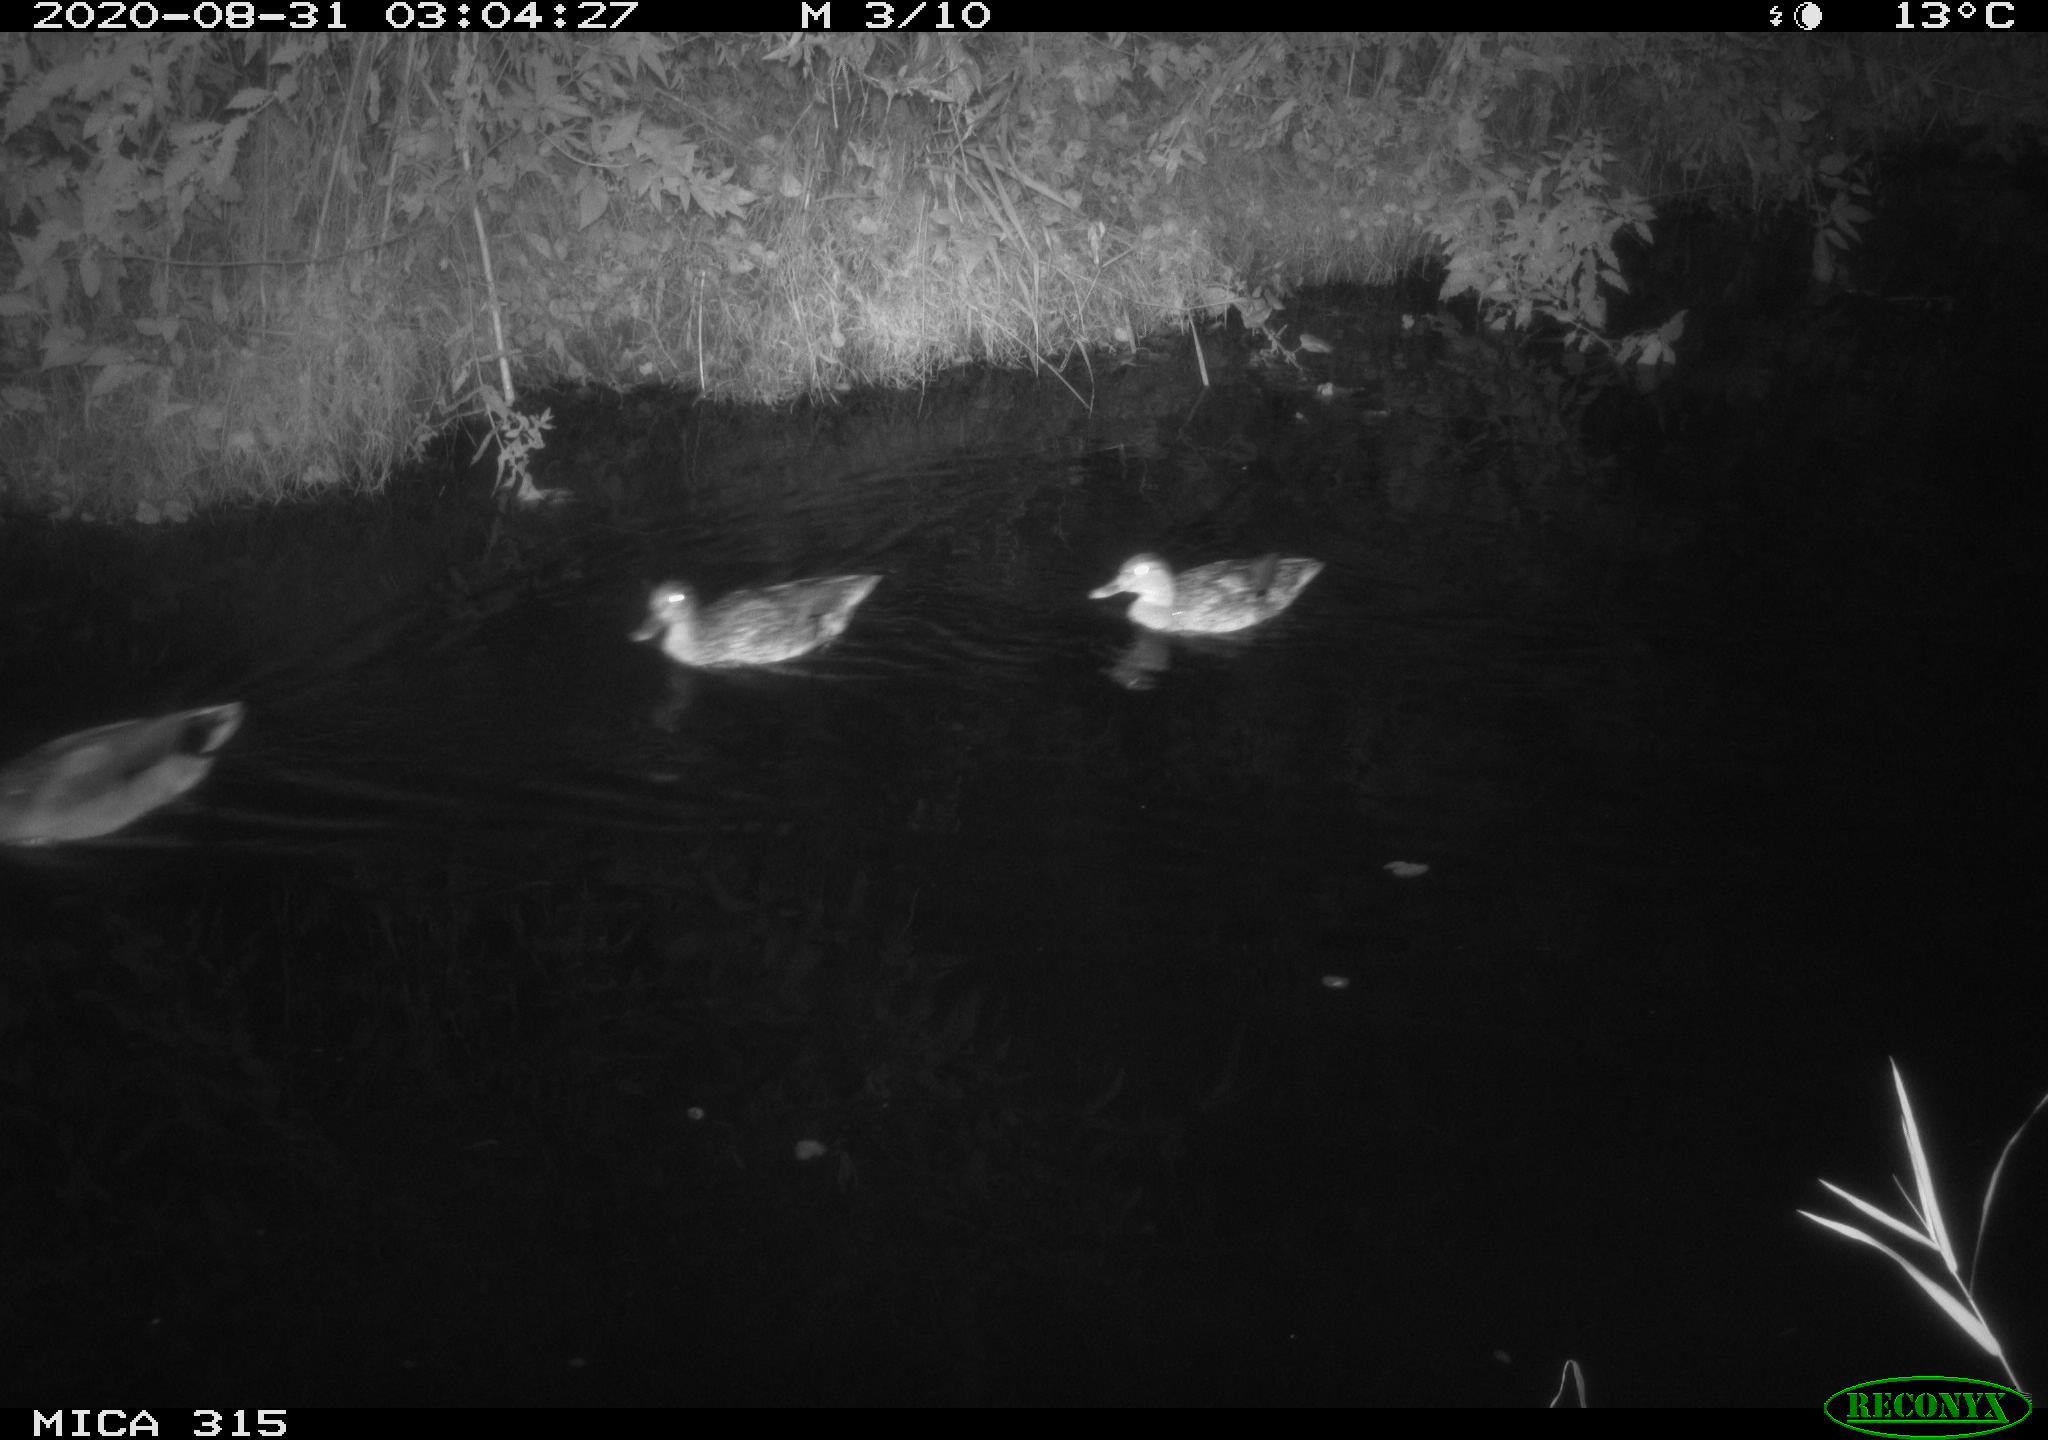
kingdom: Animalia
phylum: Chordata
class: Aves
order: Anseriformes
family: Anatidae
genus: Anas
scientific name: Anas platyrhynchos
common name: Mallard
